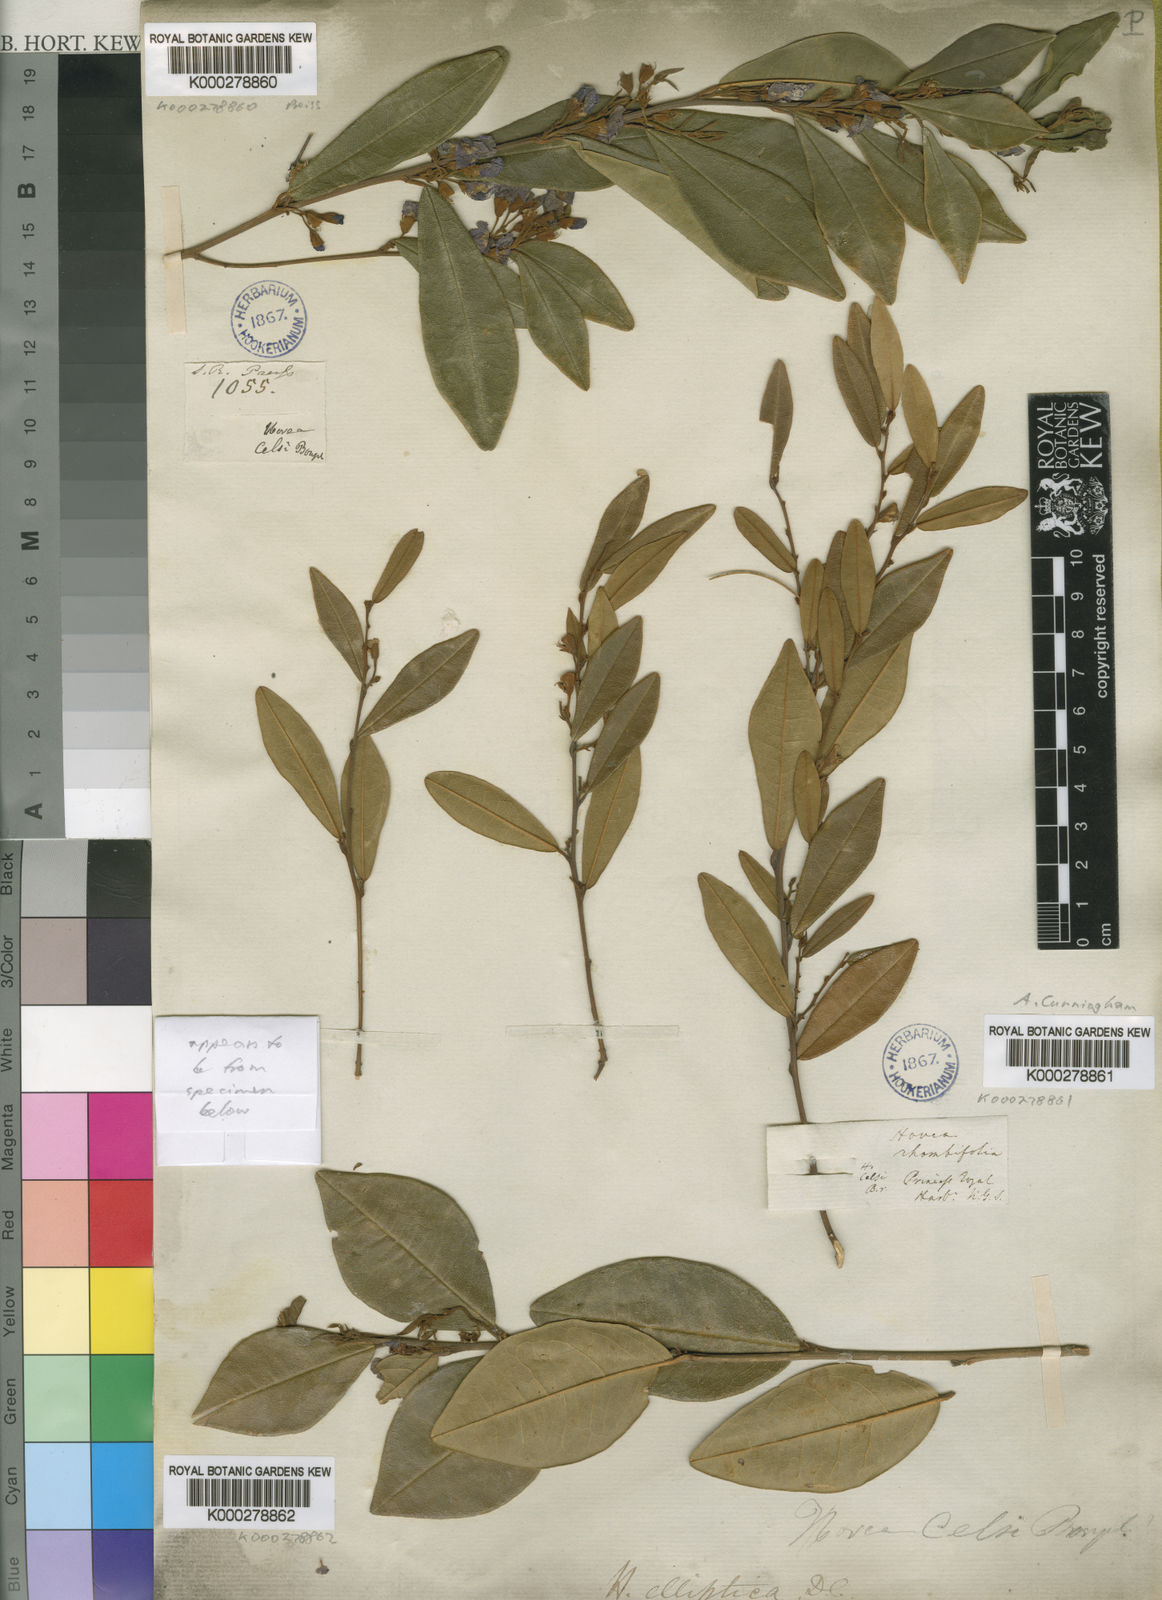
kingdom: Plantae
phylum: Tracheophyta
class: Magnoliopsida
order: Fabales
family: Fabaceae
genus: Hovea
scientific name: Hovea elliptica
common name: Tree hovea
